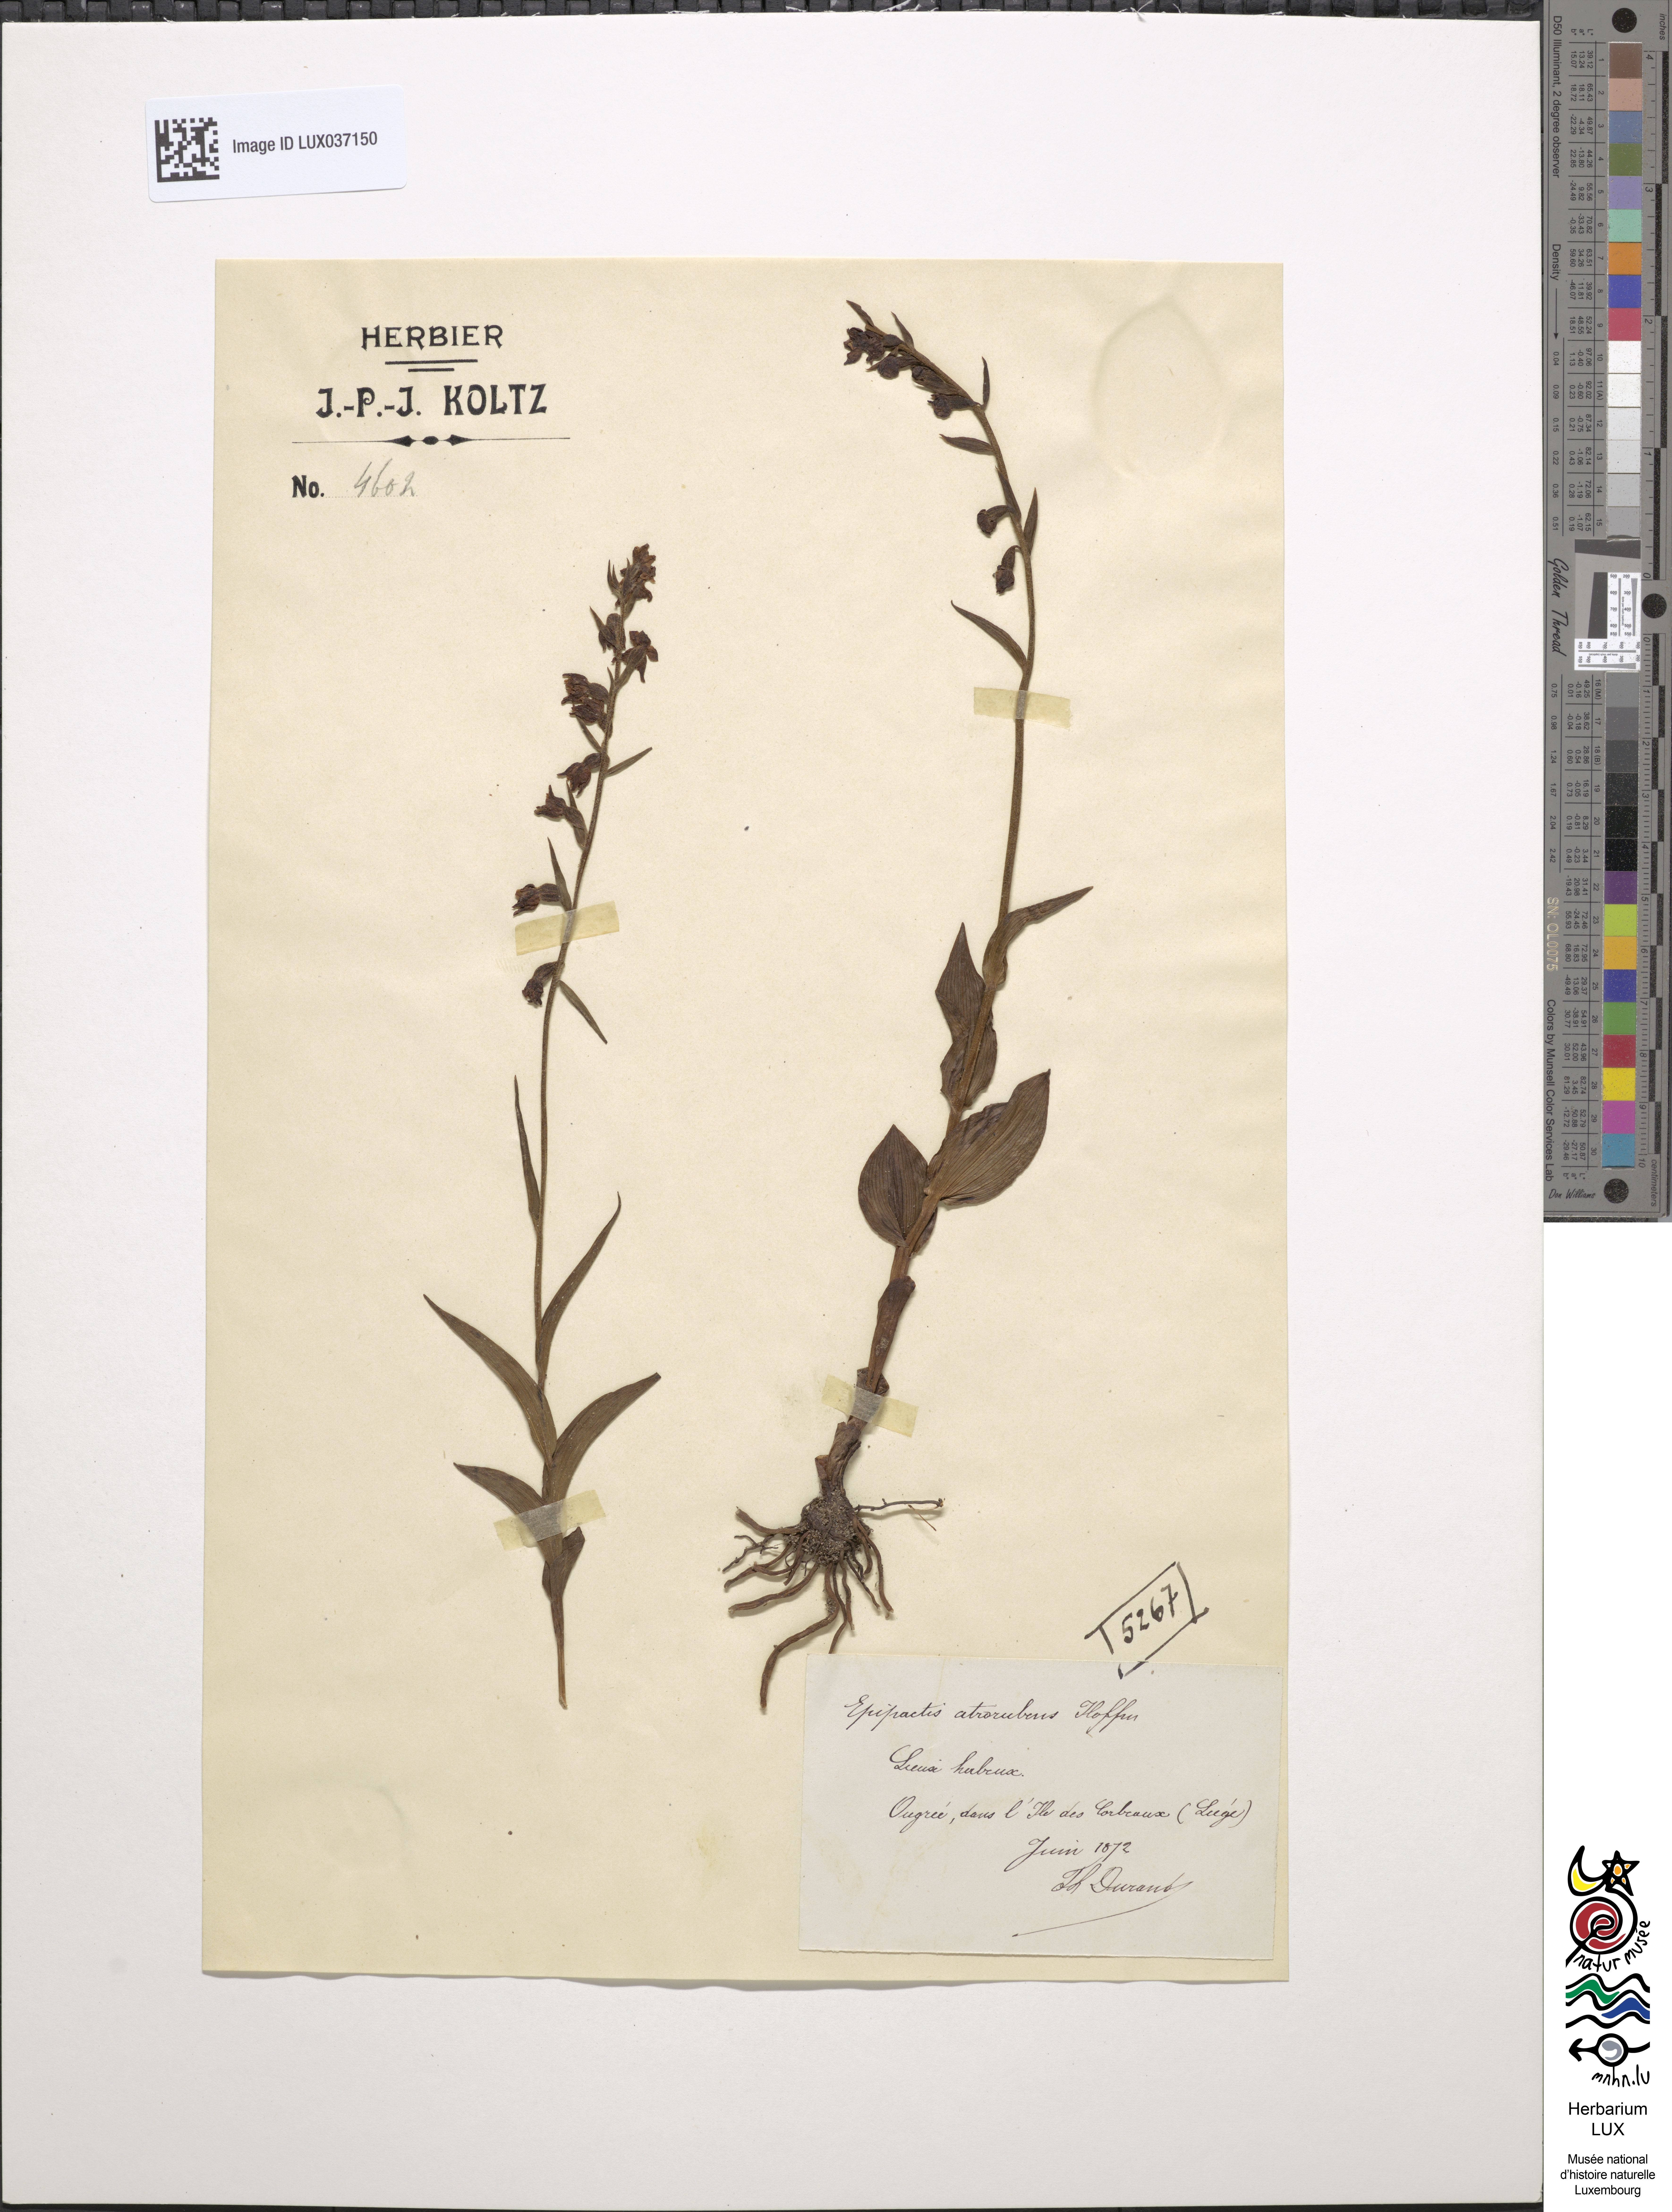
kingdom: Plantae
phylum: Tracheophyta
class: Liliopsida
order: Asparagales
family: Orchidaceae
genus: Epipactis
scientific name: Epipactis atrorubens
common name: Dark-red helleborine
